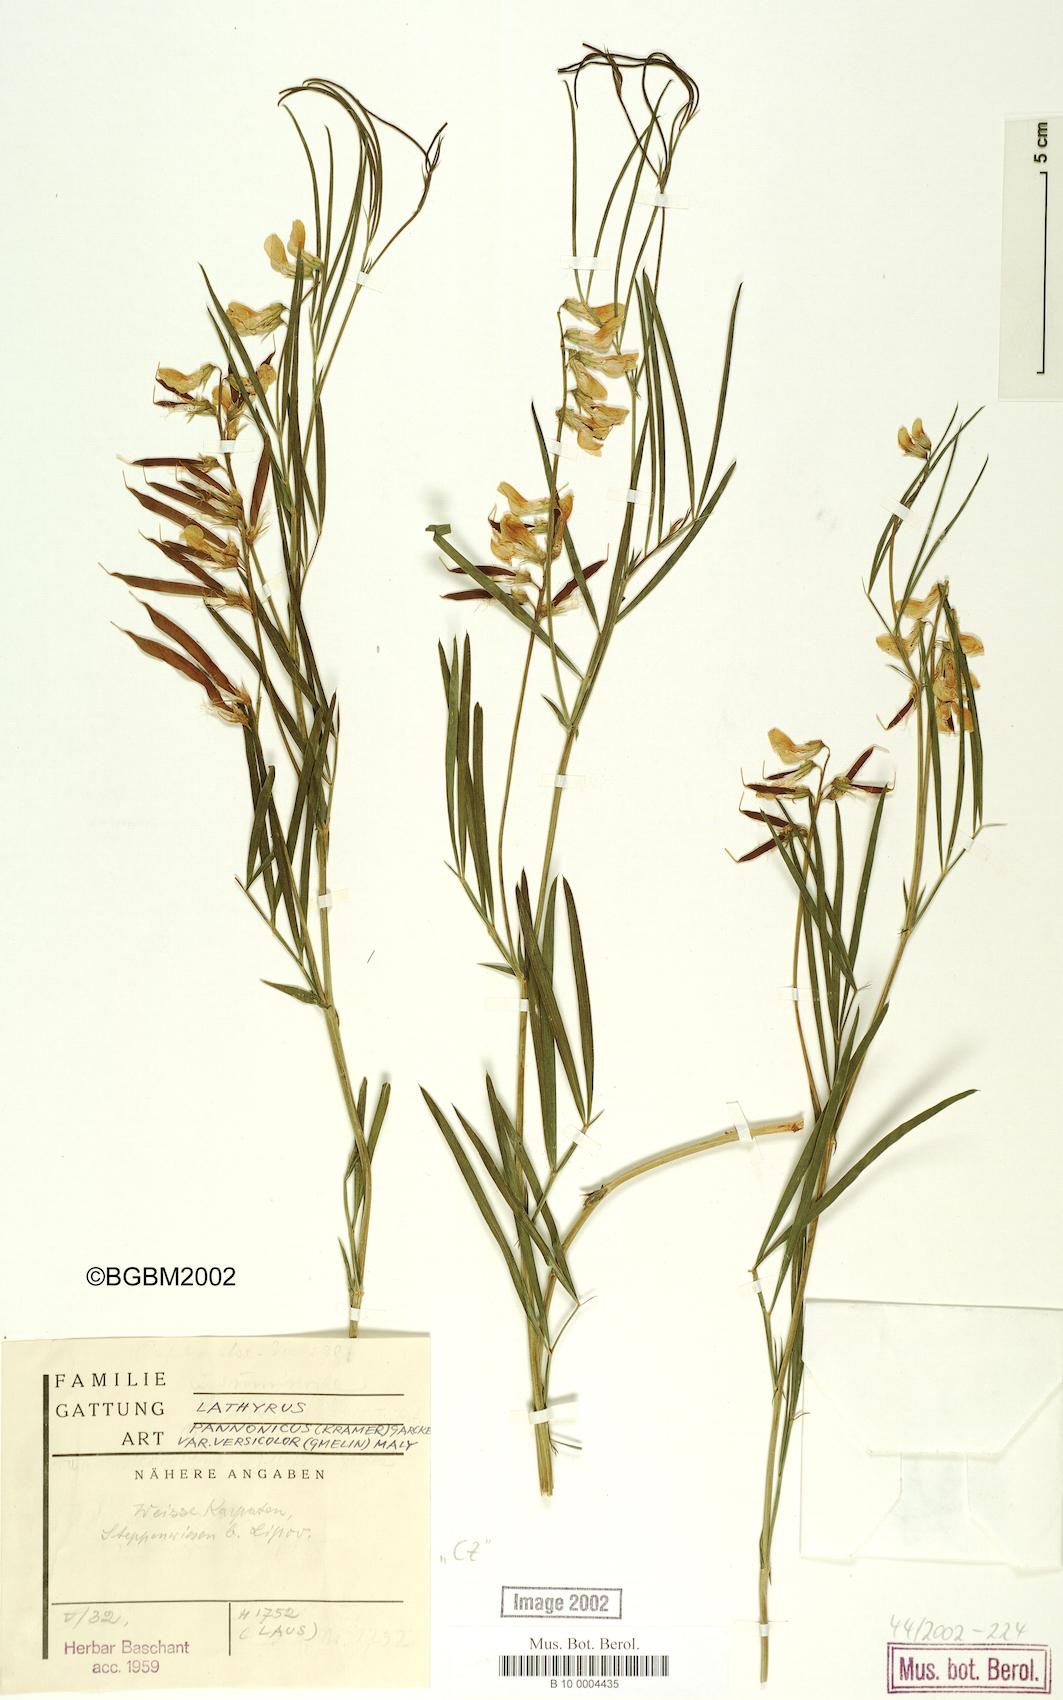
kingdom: Plantae
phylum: Tracheophyta
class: Magnoliopsida
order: Fabales
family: Fabaceae
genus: Lathyrus
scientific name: Lathyrus pannonicus
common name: Pea
